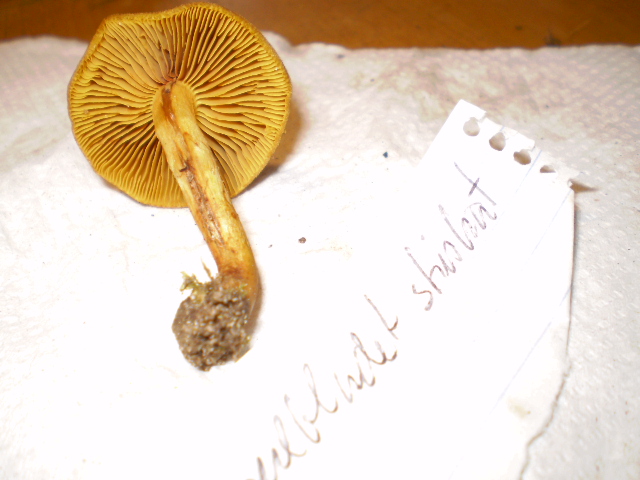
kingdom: Fungi
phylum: Basidiomycota
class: Agaricomycetes
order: Agaricales
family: Cortinariaceae
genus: Cortinarius
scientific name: Cortinarius
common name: gulbladet slørhat
